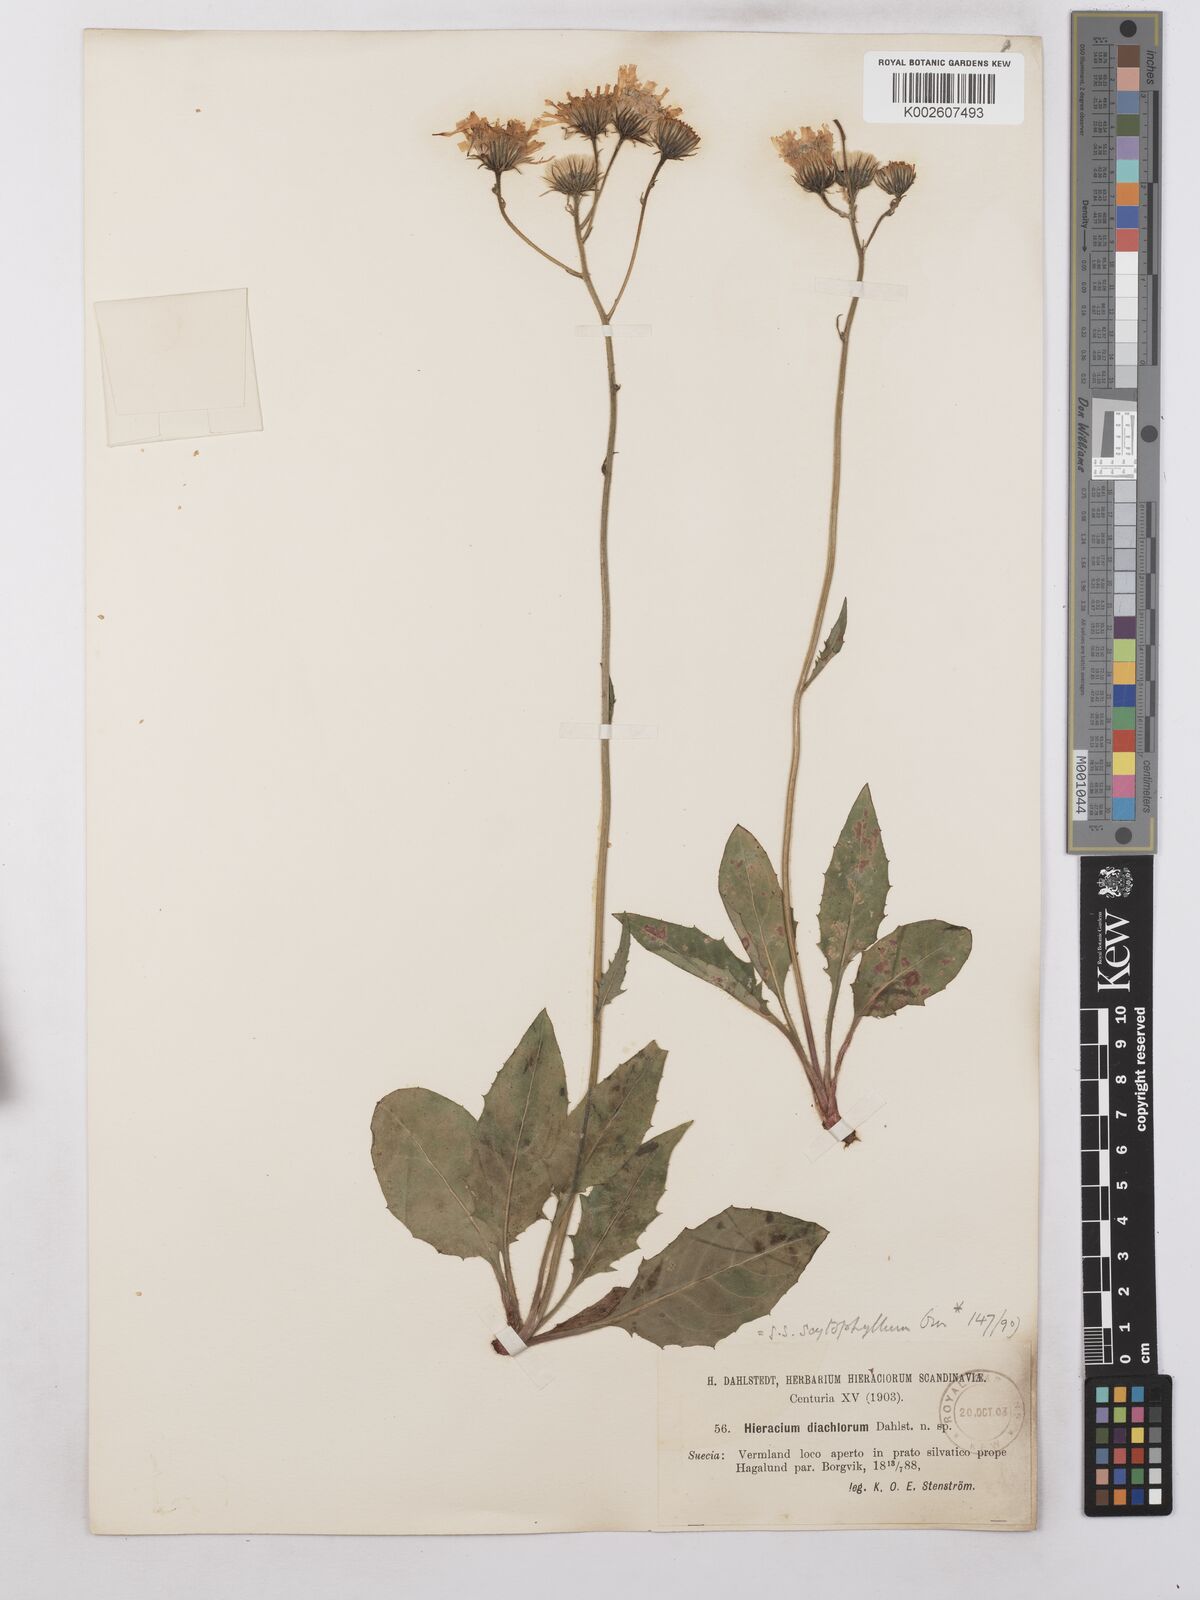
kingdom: Plantae
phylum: Tracheophyta
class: Magnoliopsida
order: Asterales
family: Asteraceae
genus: Hieracium
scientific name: Hieracium caesium
